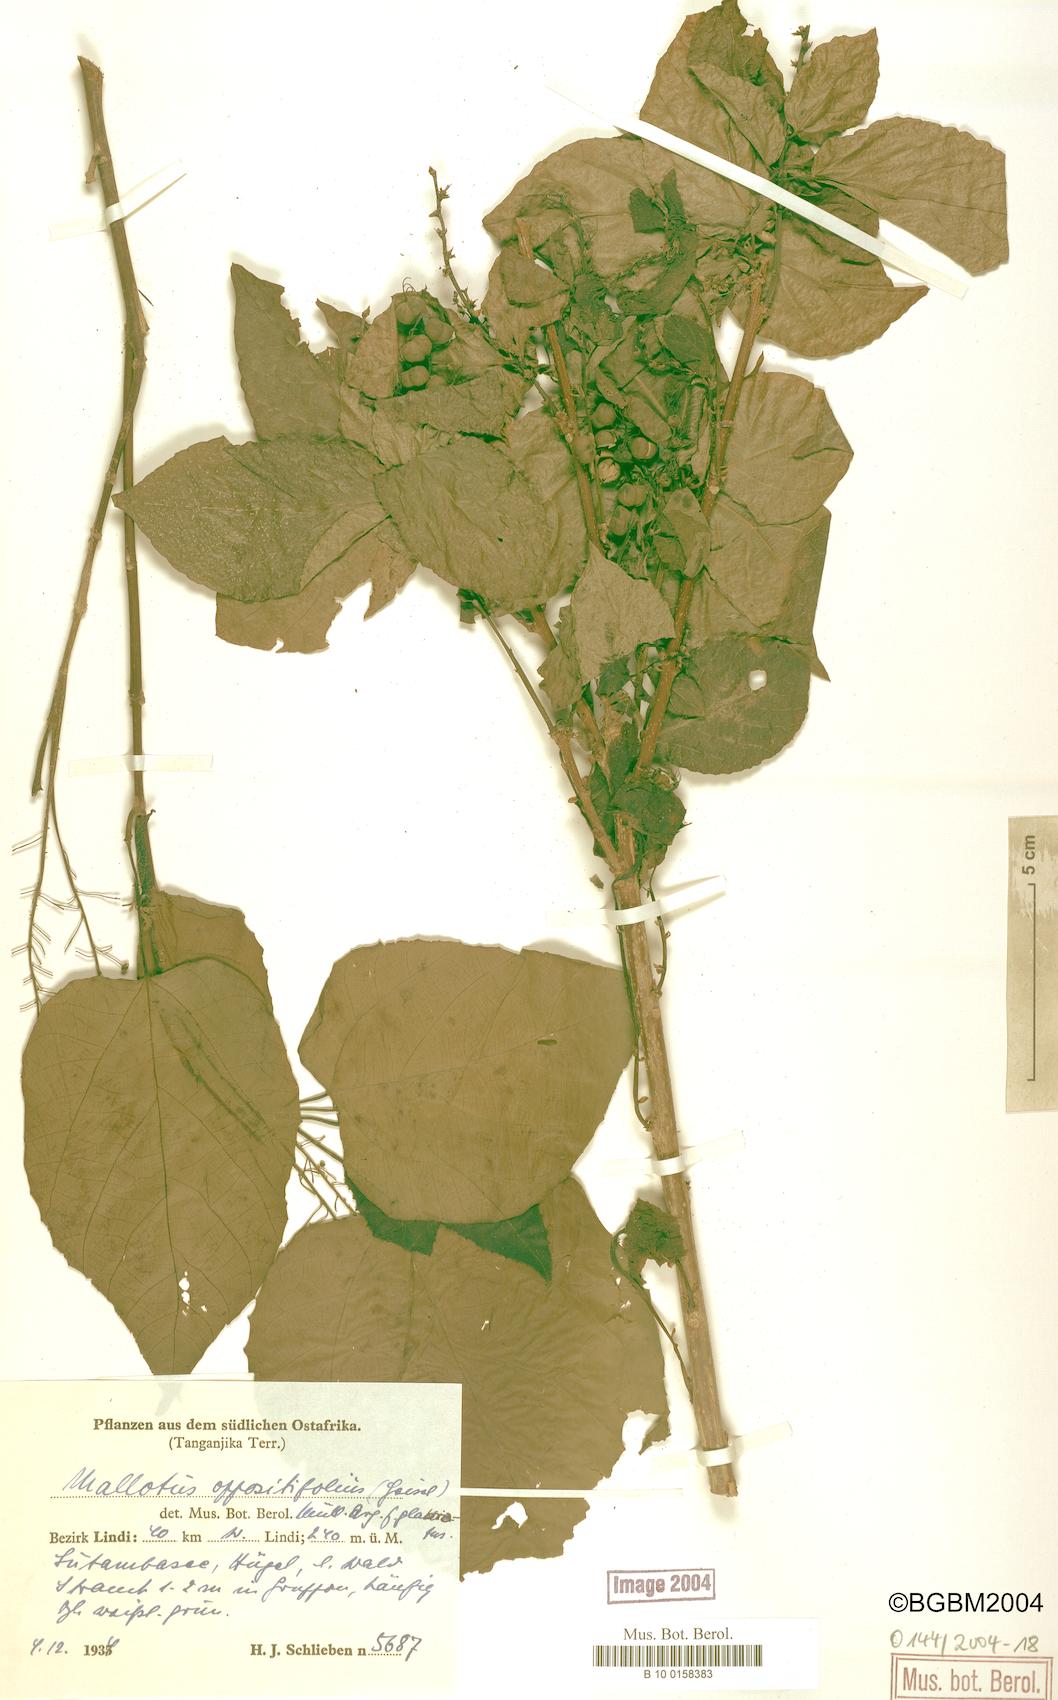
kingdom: Plantae
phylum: Tracheophyta
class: Magnoliopsida
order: Malpighiales
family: Euphorbiaceae
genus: Mallotus
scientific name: Mallotus oppositifolius
